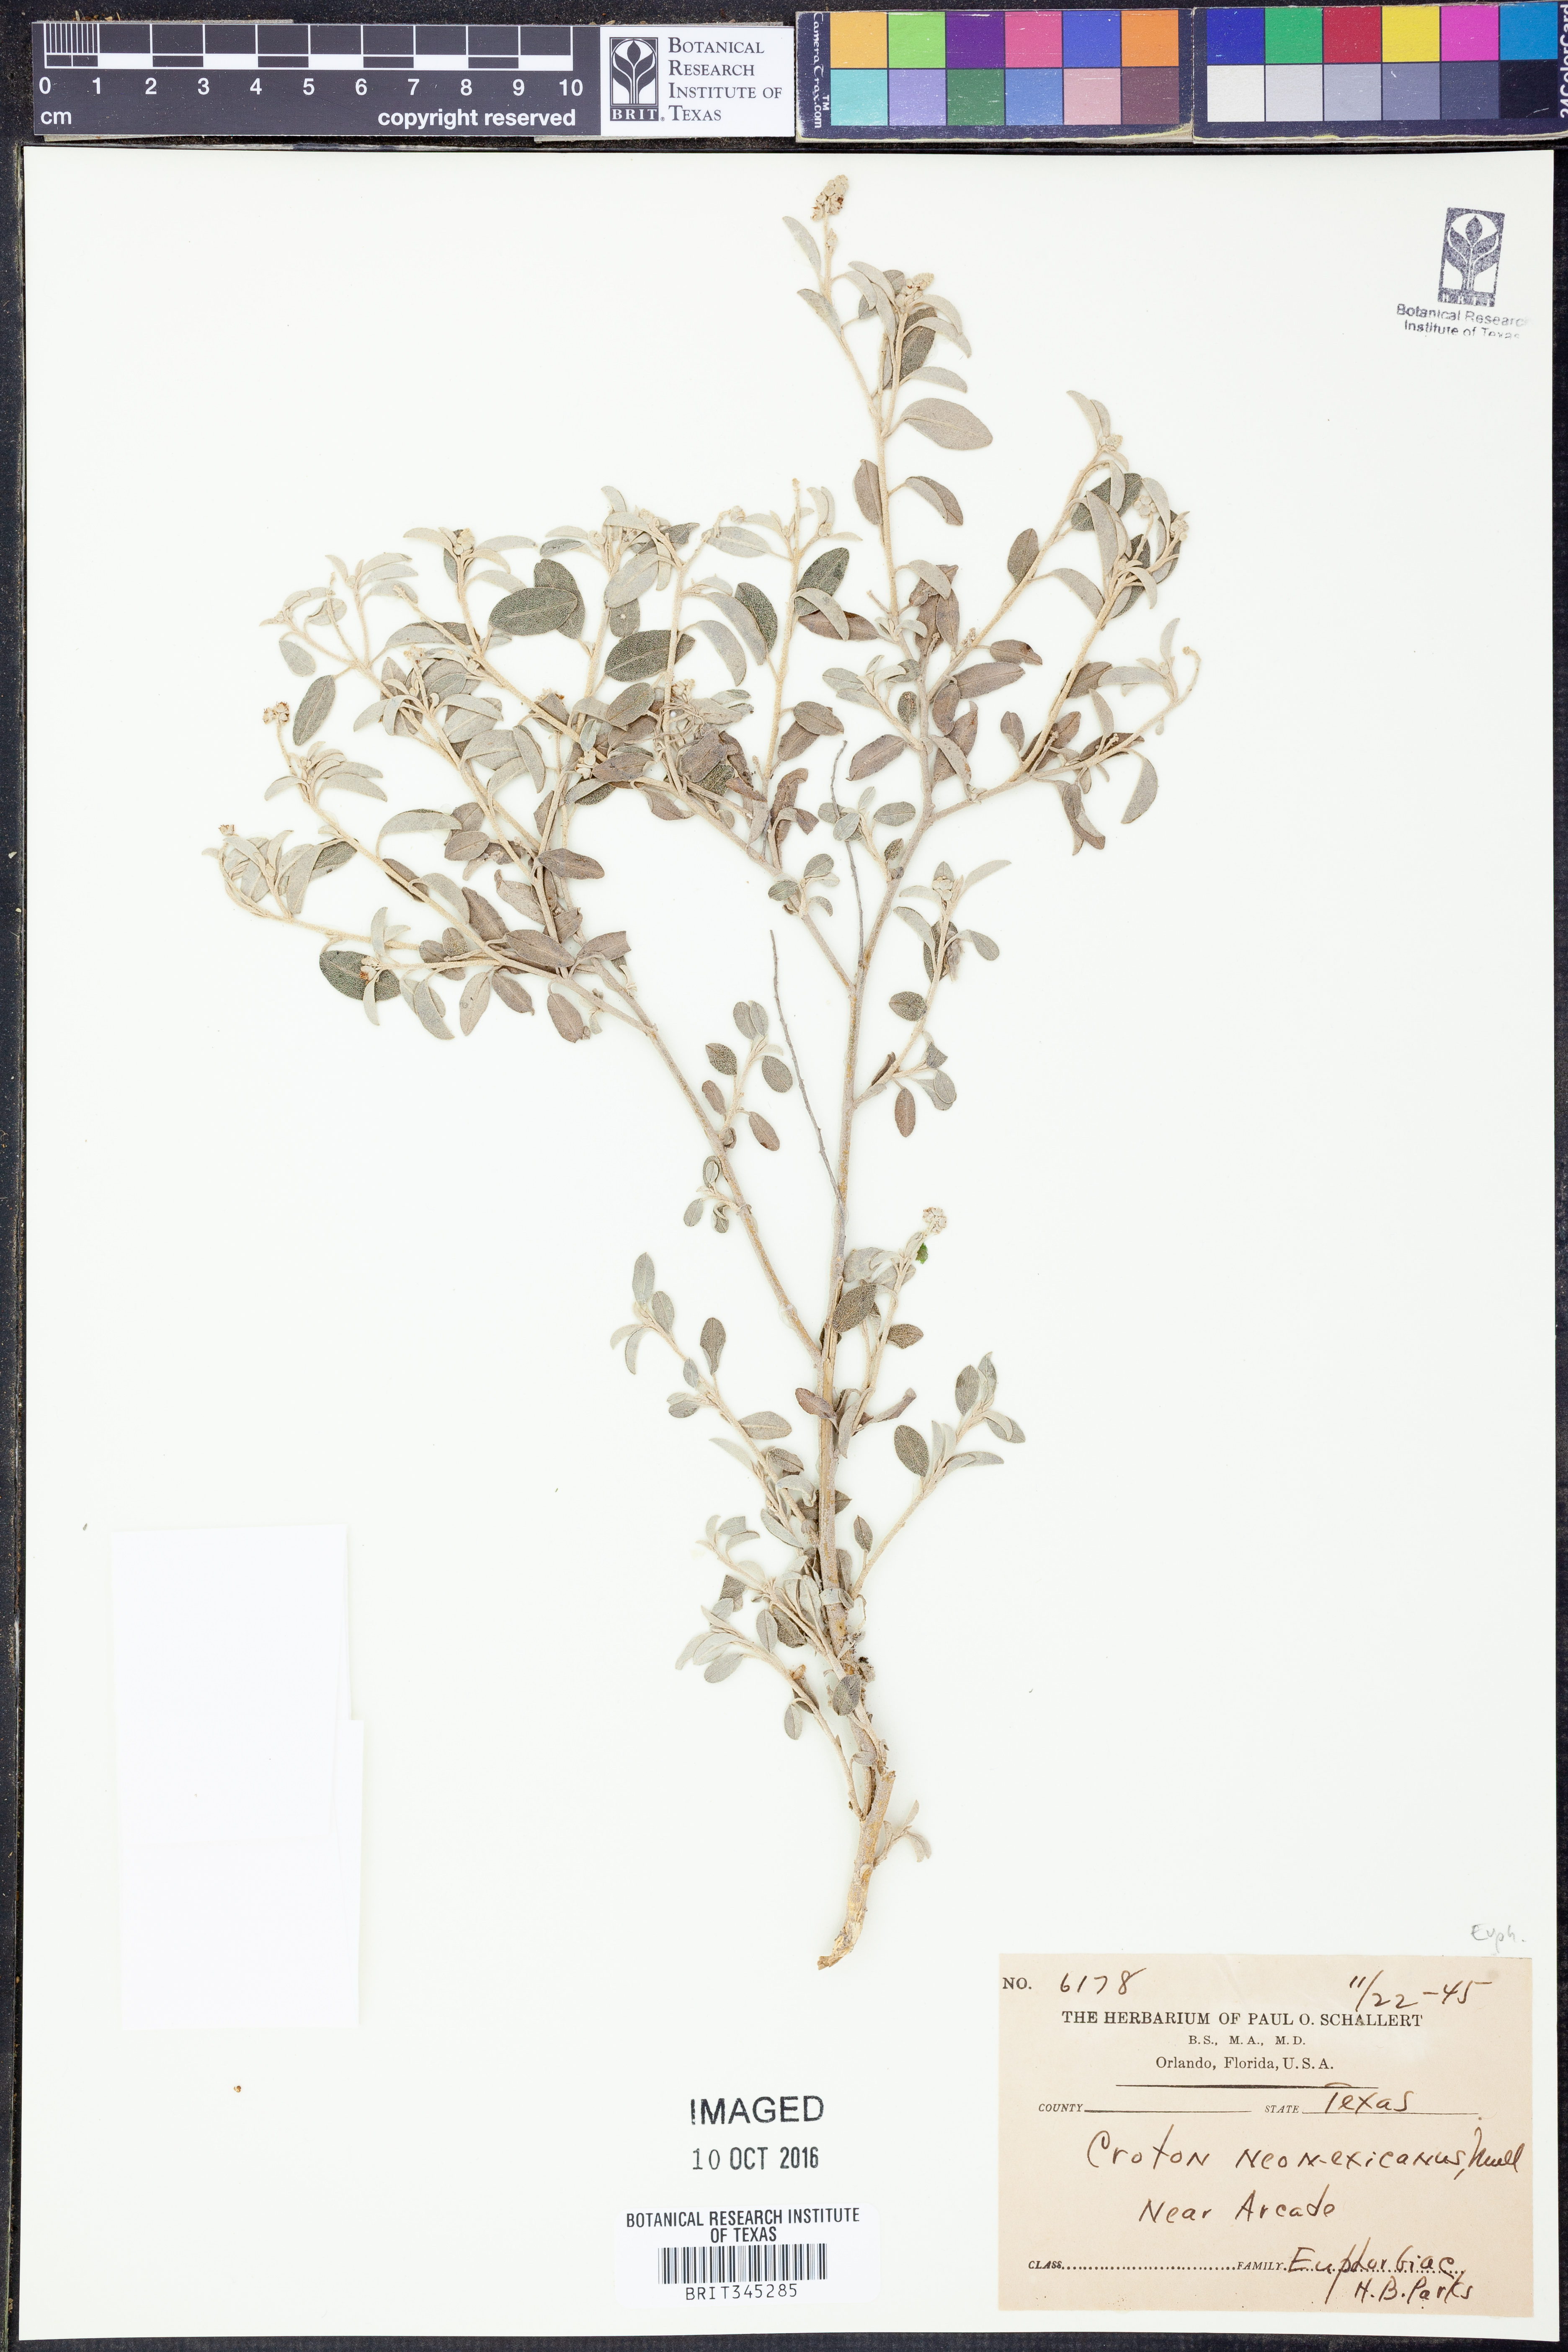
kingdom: Plantae
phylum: Tracheophyta
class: Magnoliopsida
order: Malpighiales
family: Euphorbiaceae
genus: Croton
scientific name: Croton dioicus
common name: Grassland croton
